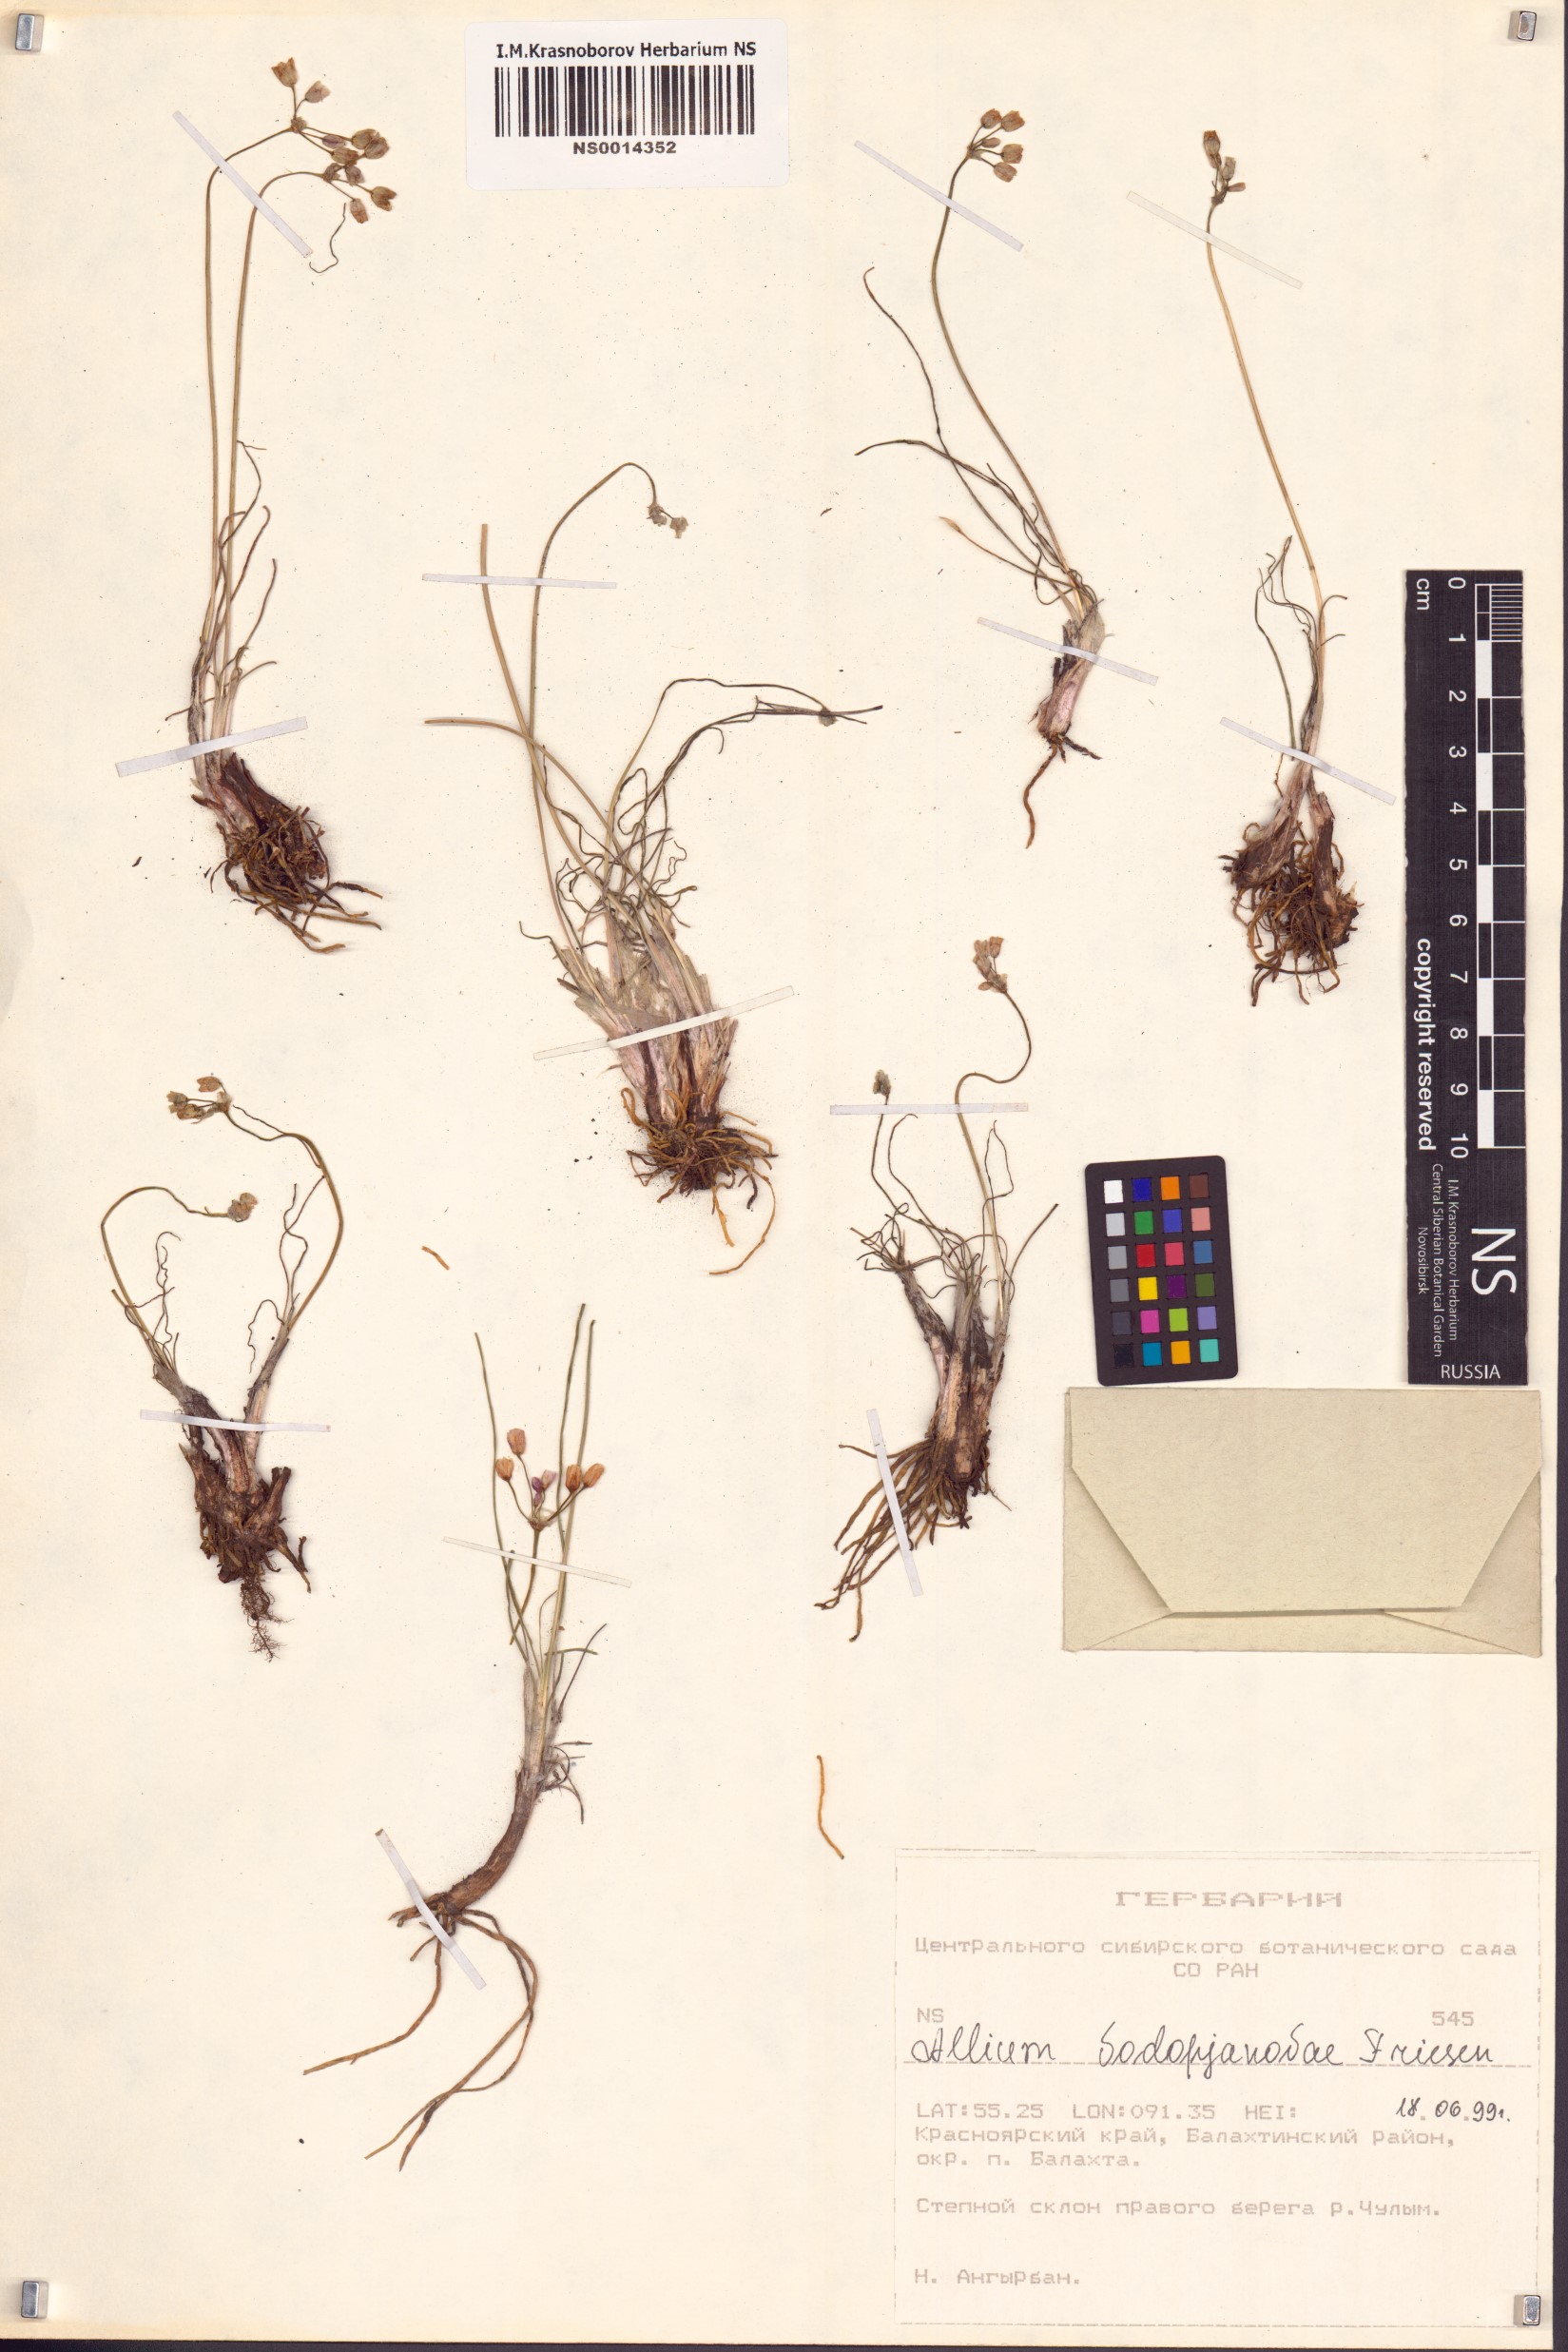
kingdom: Plantae
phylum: Tracheophyta
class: Liliopsida
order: Asparagales
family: Amaryllidaceae
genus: Allium
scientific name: Allium vodopjanovae
